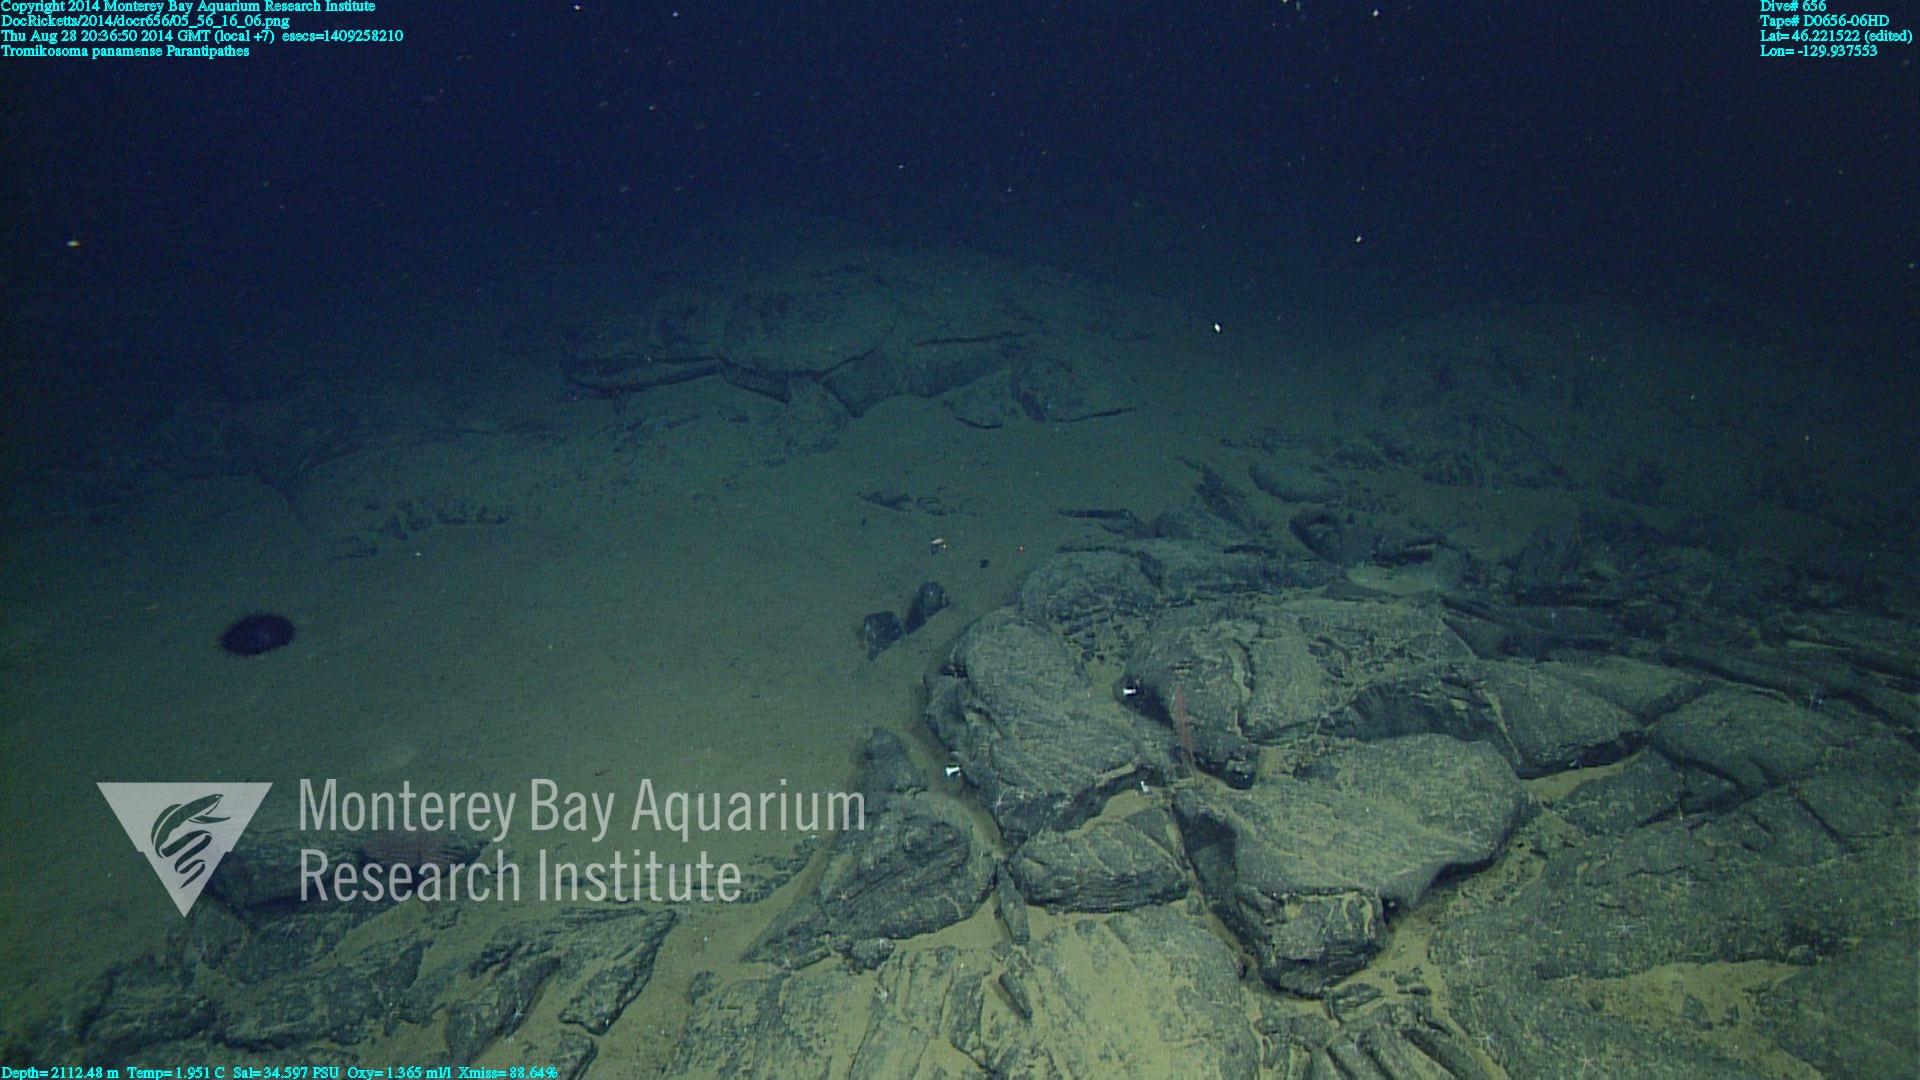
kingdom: Animalia
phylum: Cnidaria
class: Anthozoa
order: Antipatharia
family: Schizopathidae
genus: Parantipathes
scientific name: Parantipathes
